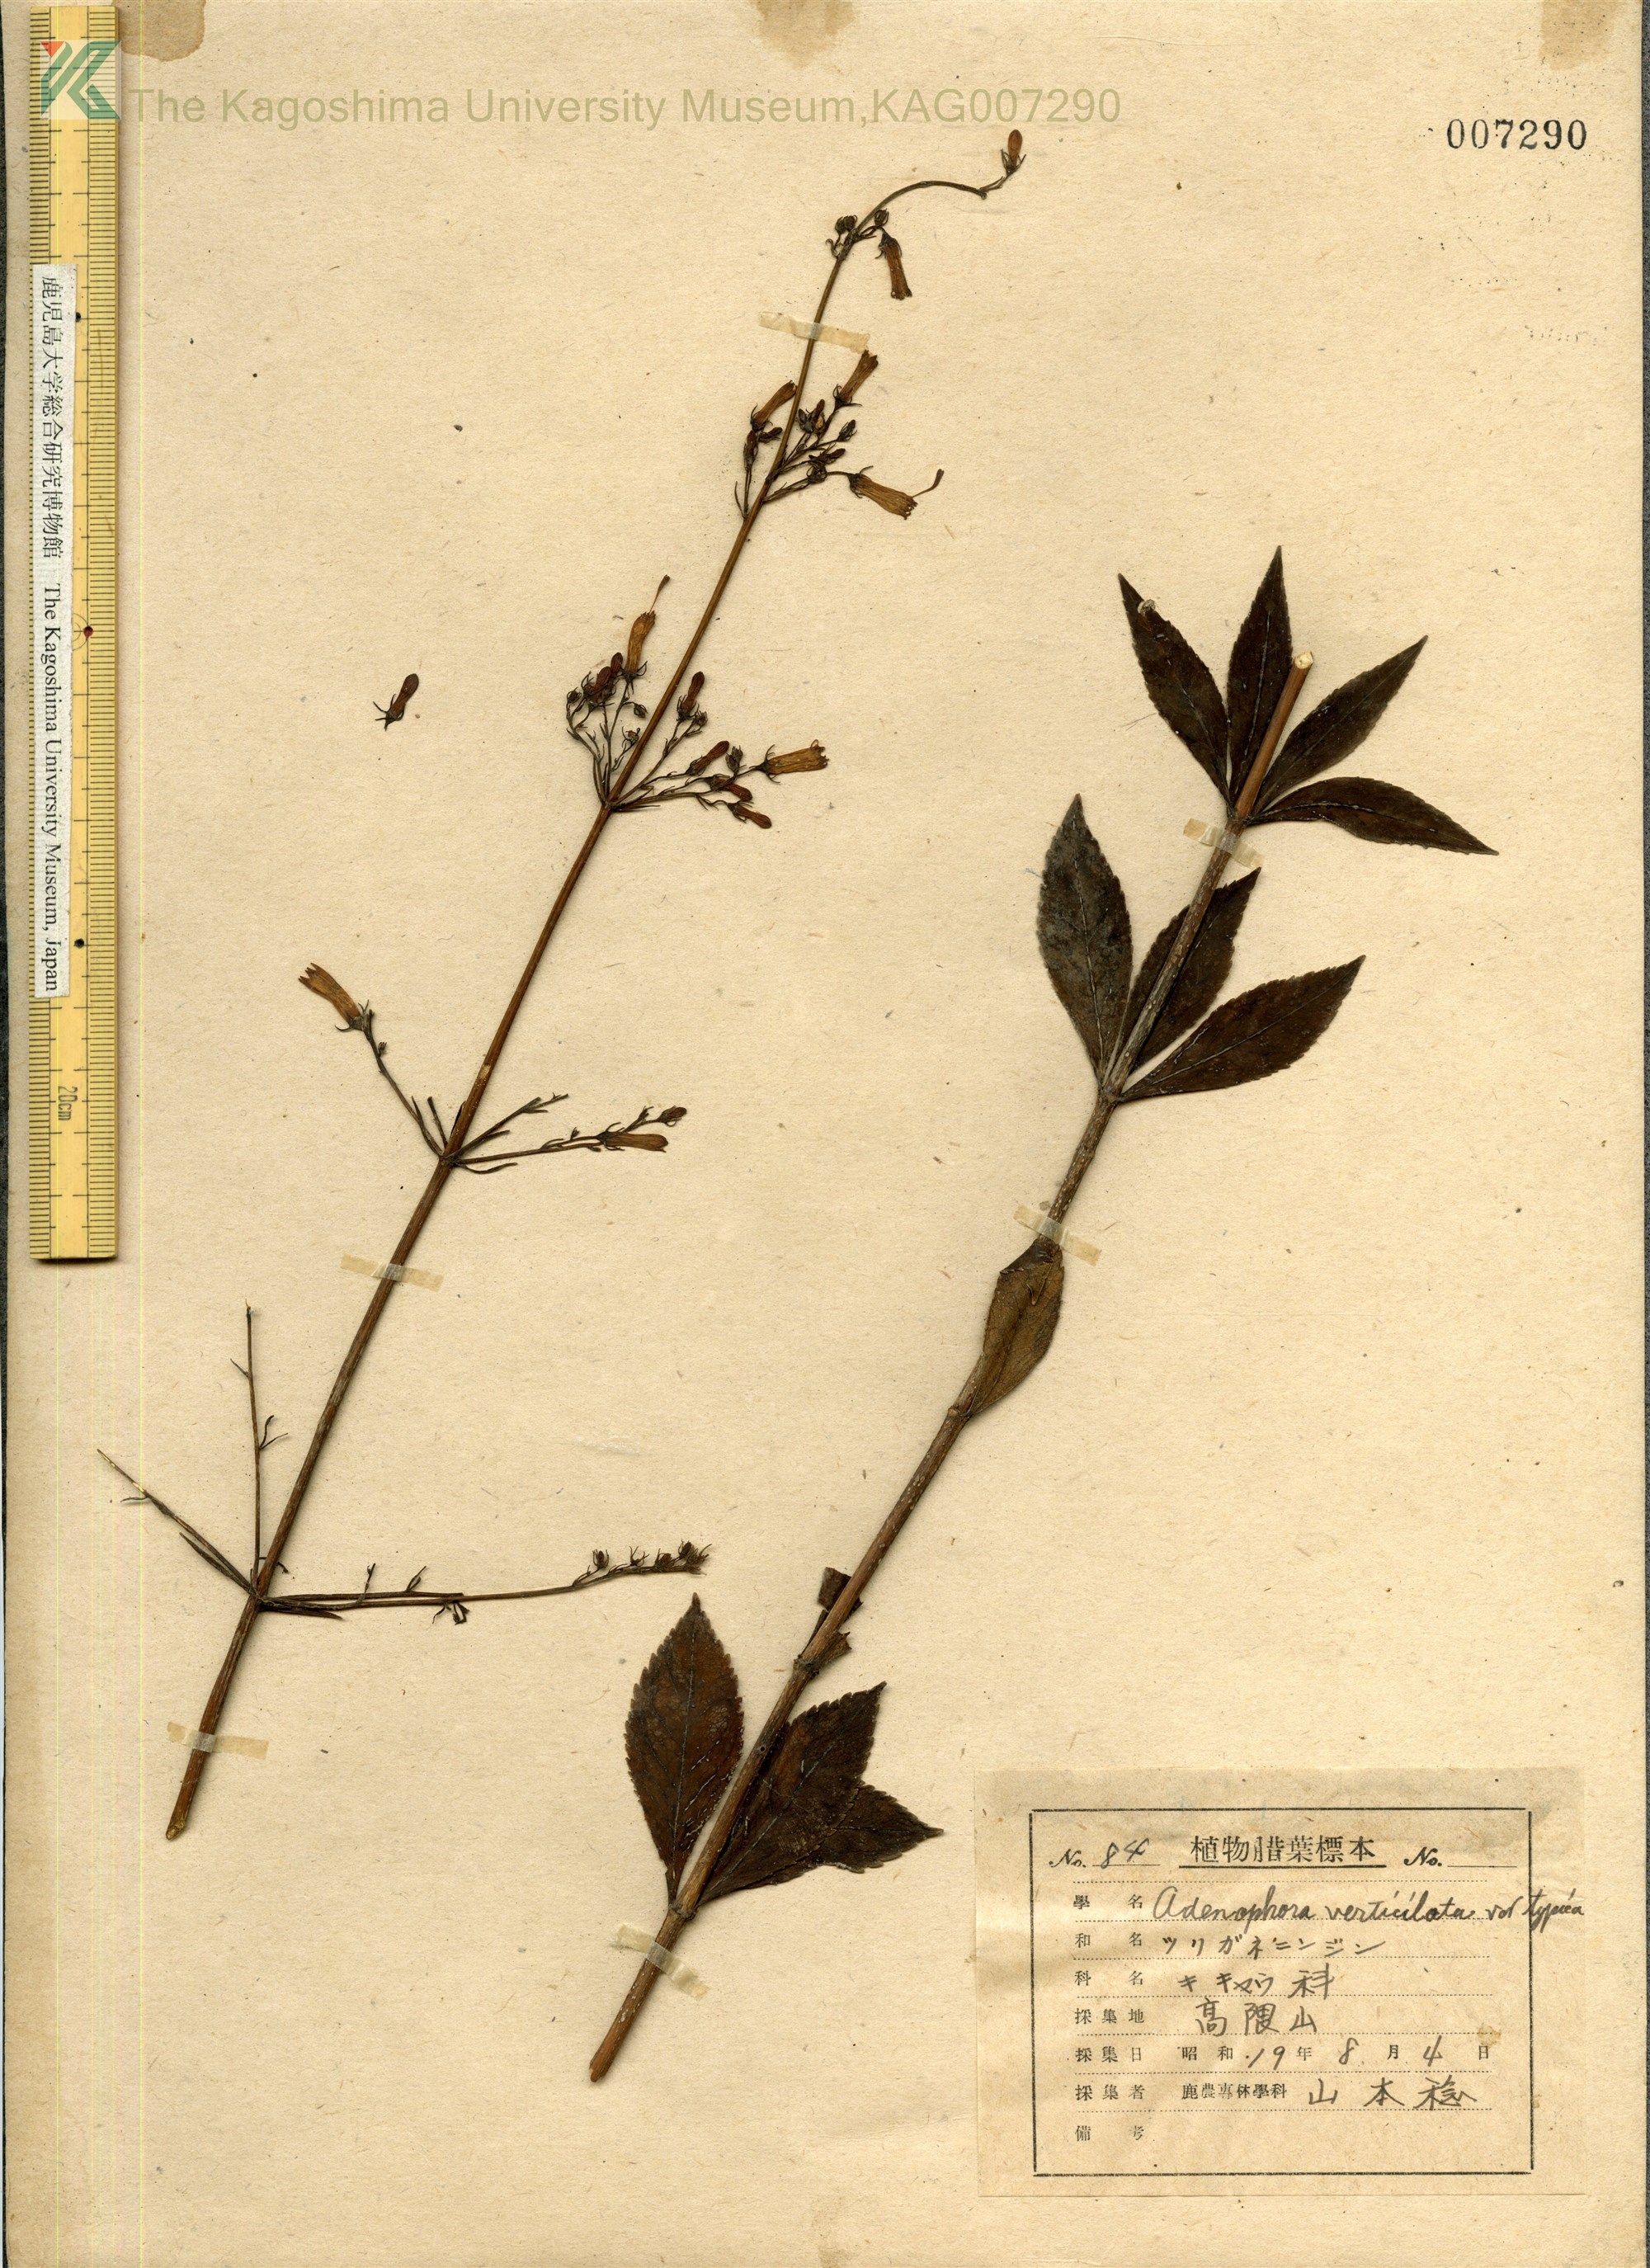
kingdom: Plantae
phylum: Tracheophyta
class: Magnoliopsida
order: Asterales
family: Campanulaceae
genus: Adenophora
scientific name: Adenophora triphylla
